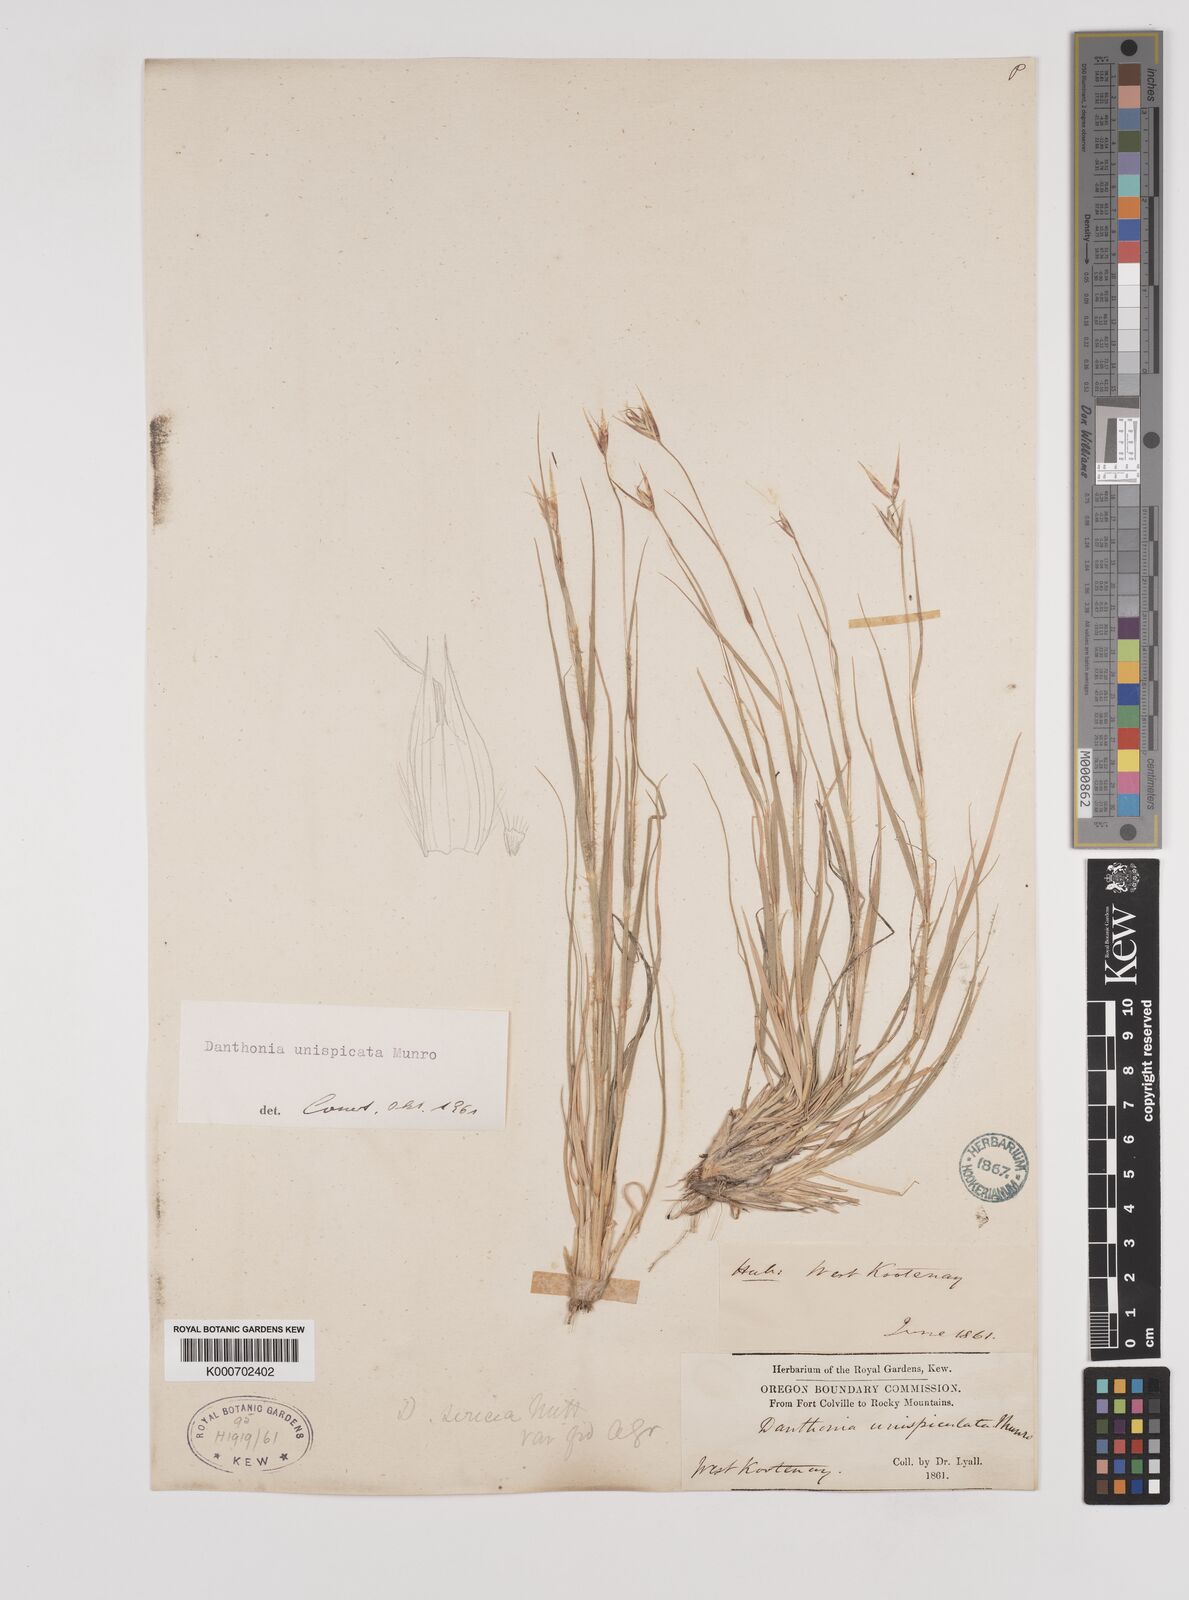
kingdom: Plantae
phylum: Tracheophyta
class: Liliopsida
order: Poales
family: Poaceae
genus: Danthonia
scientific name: Danthonia unispicata
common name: Few-flowered oatgrass
